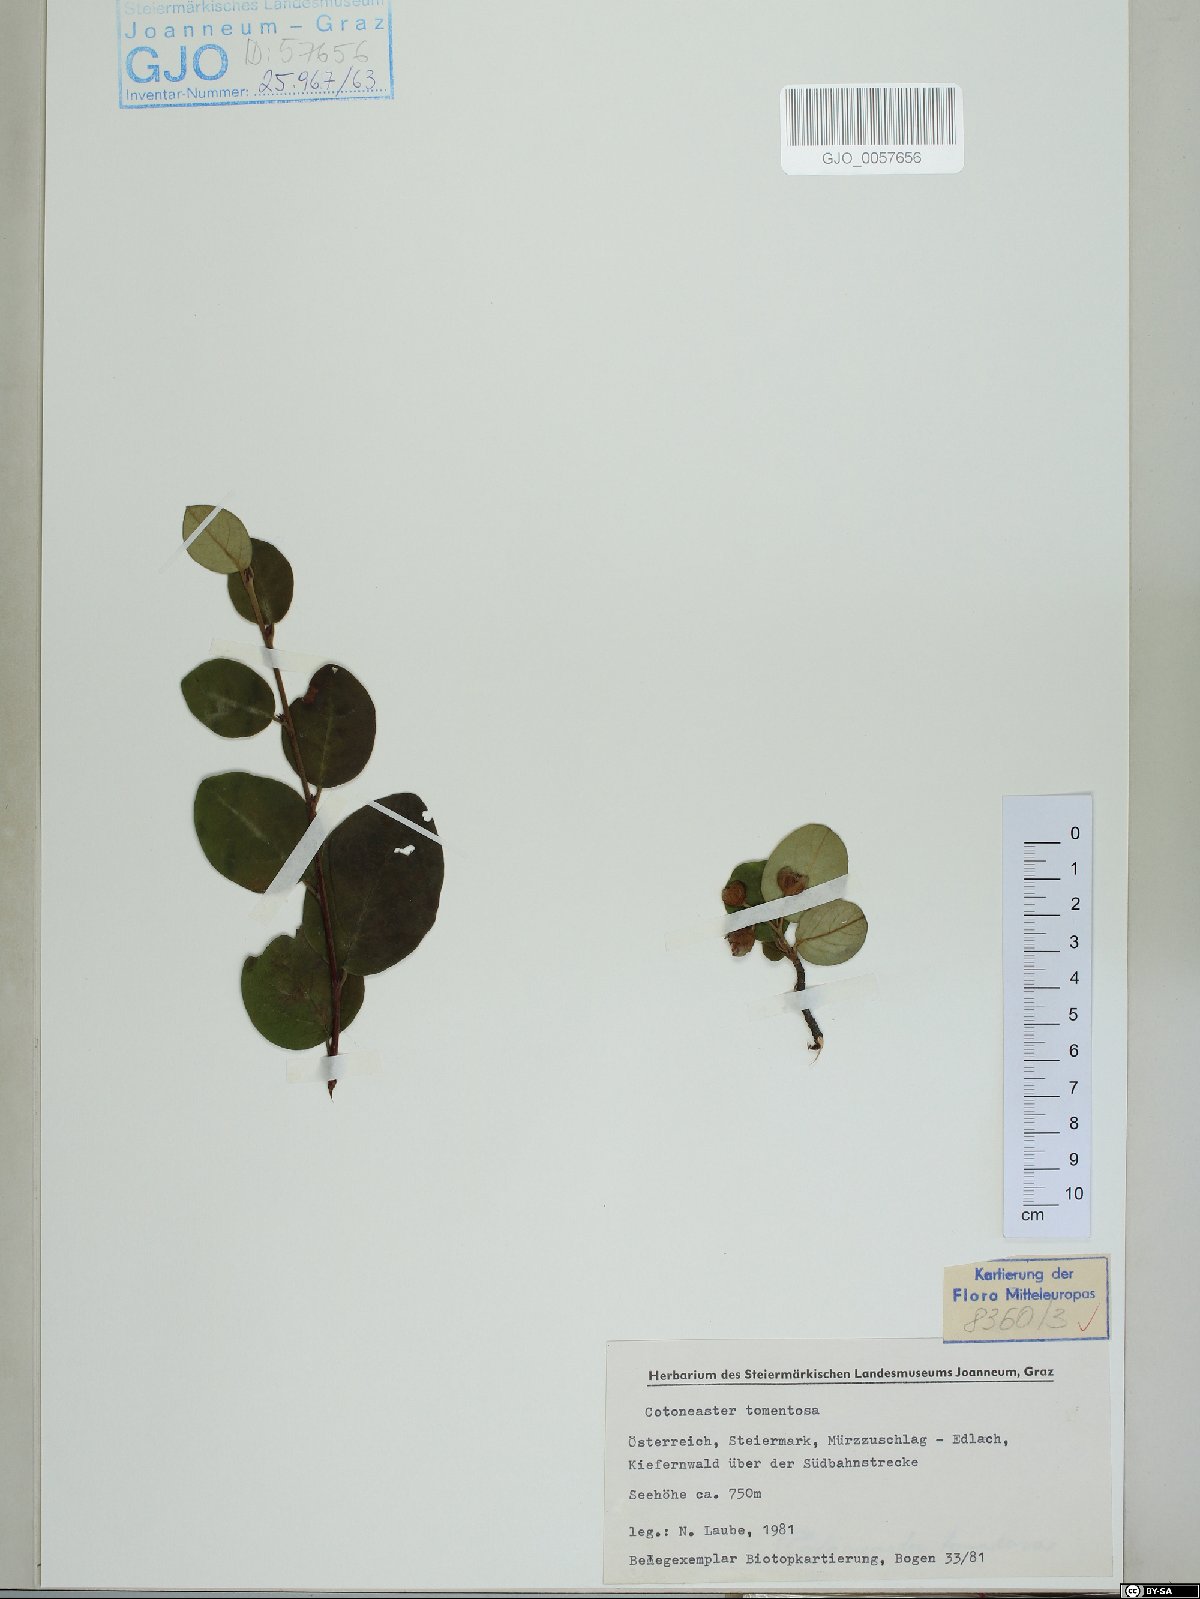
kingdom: Plantae
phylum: Tracheophyta
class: Magnoliopsida
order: Rosales
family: Rosaceae
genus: Cotoneaster
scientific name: Cotoneaster tomentosus
